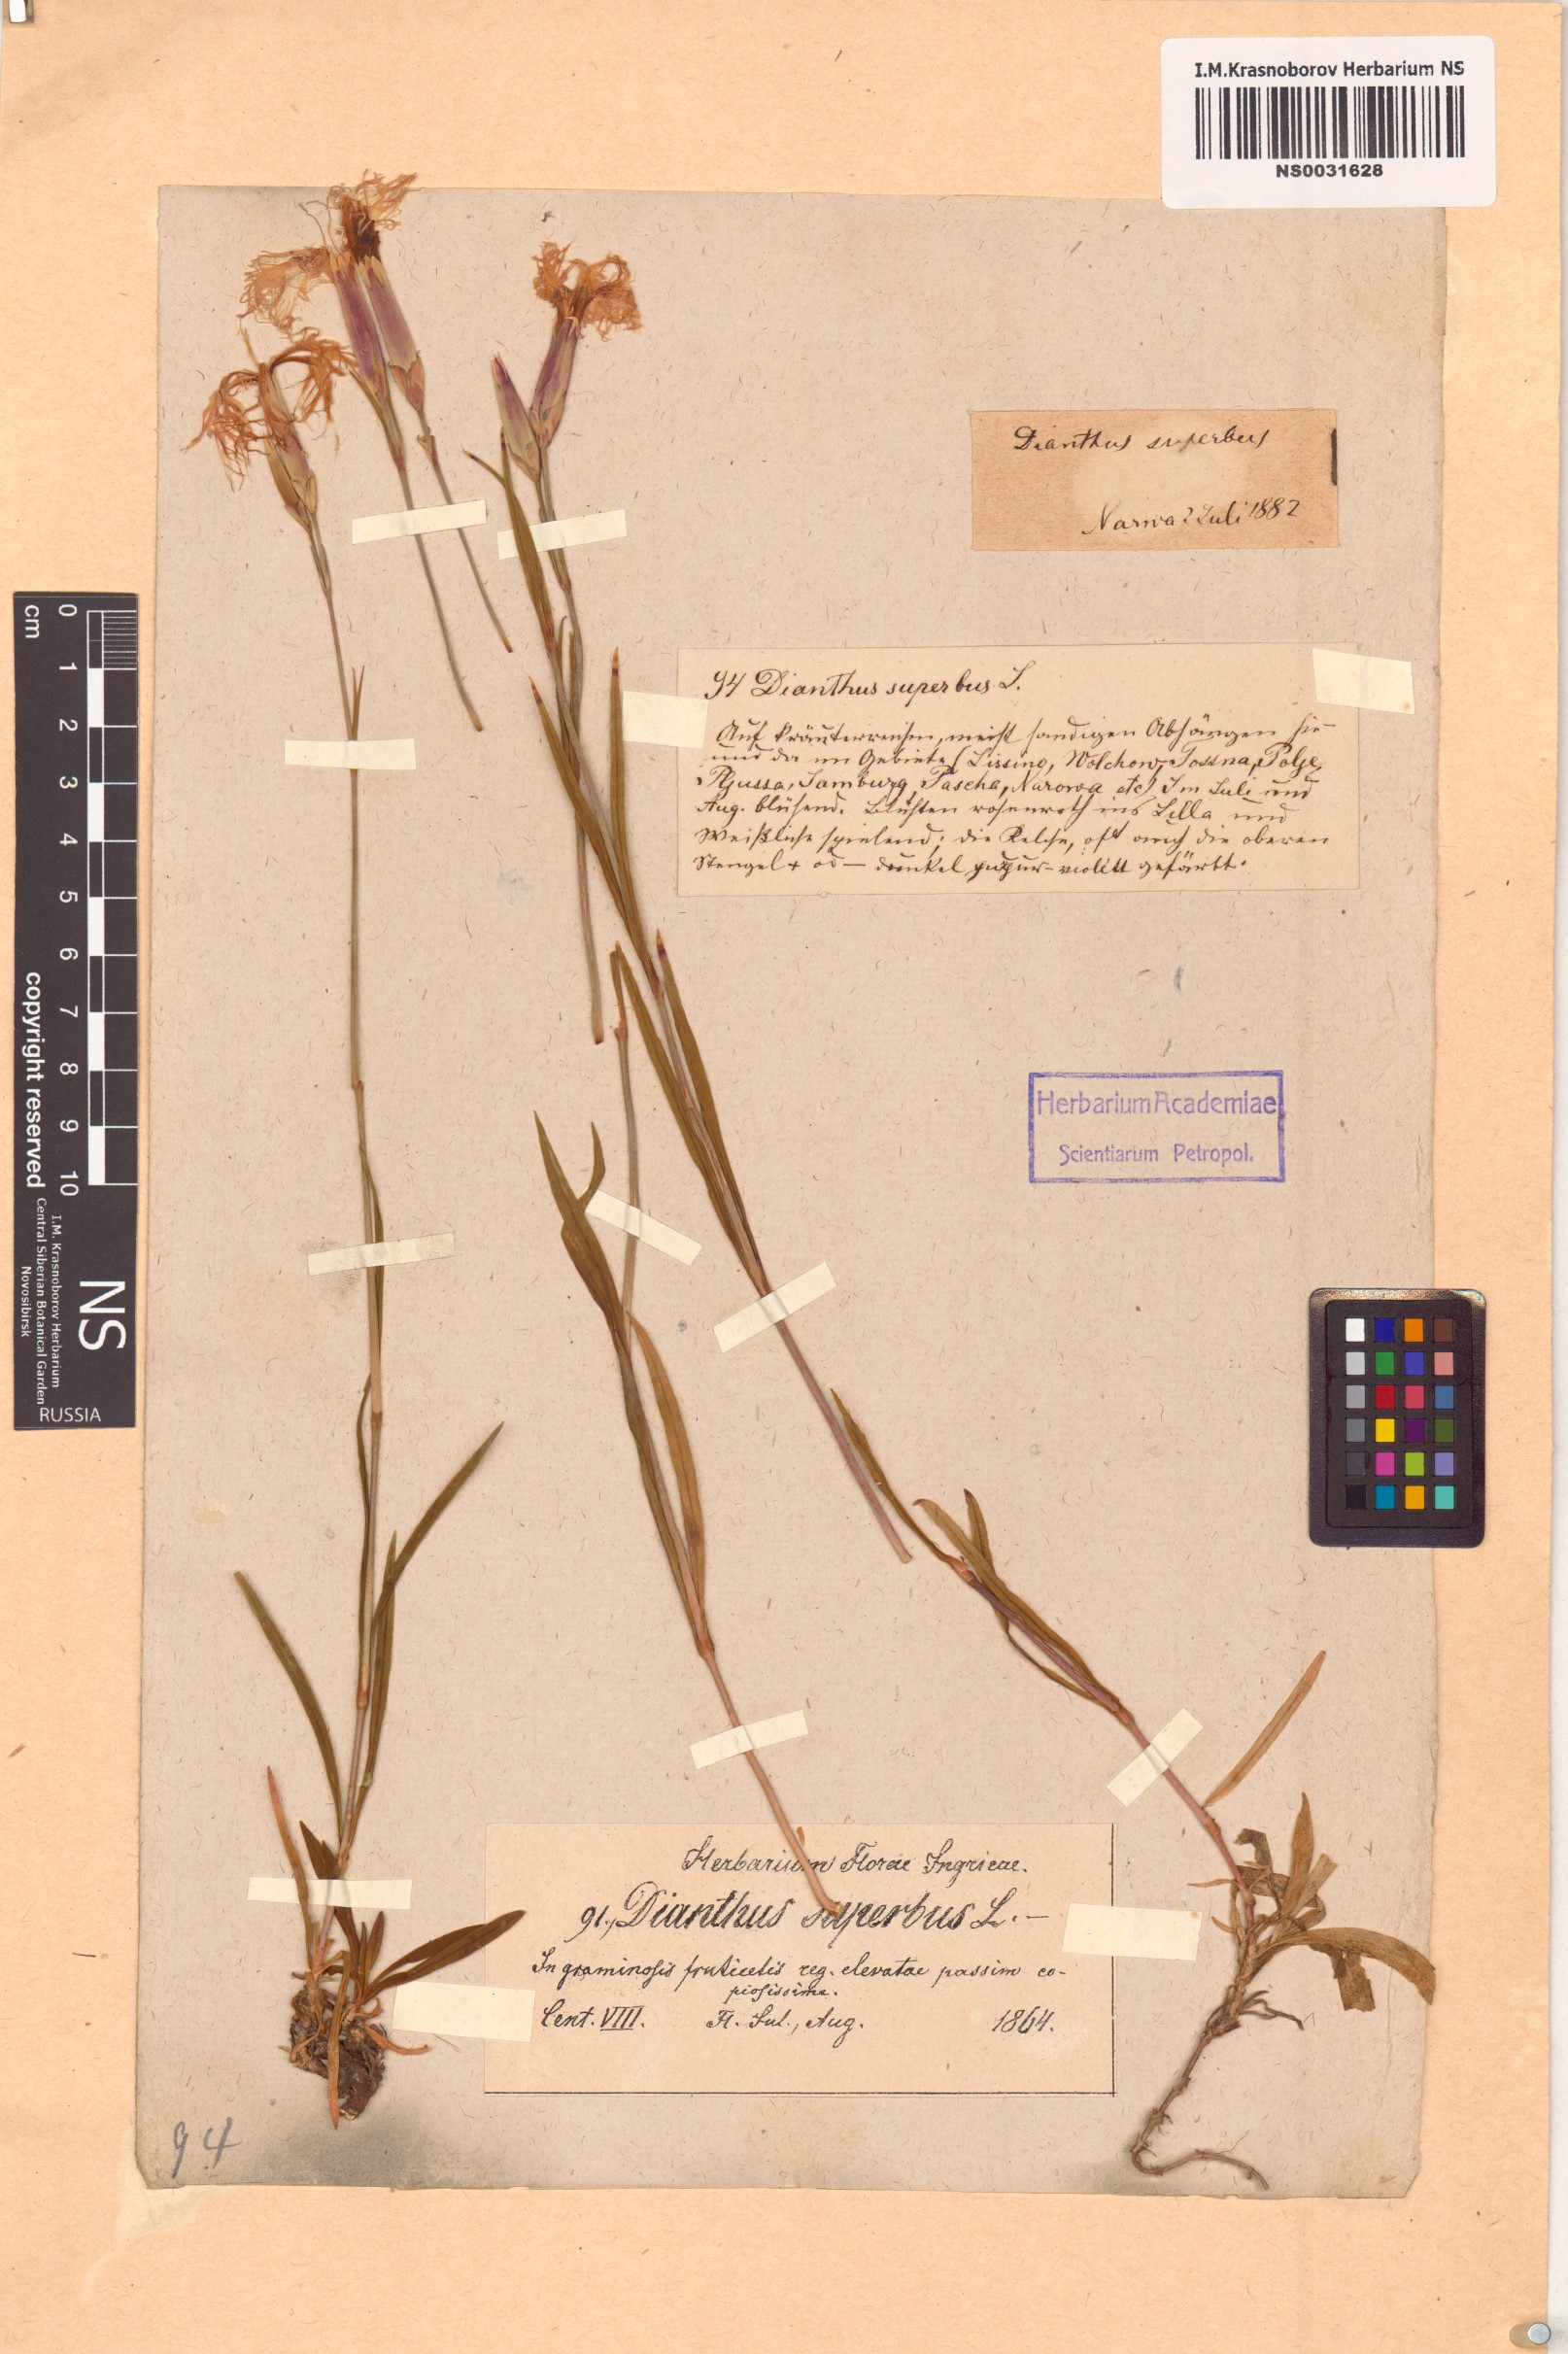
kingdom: Plantae
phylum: Tracheophyta
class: Magnoliopsida
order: Caryophyllales
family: Caryophyllaceae
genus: Dianthus
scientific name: Dianthus superbus
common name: Fringed pink
